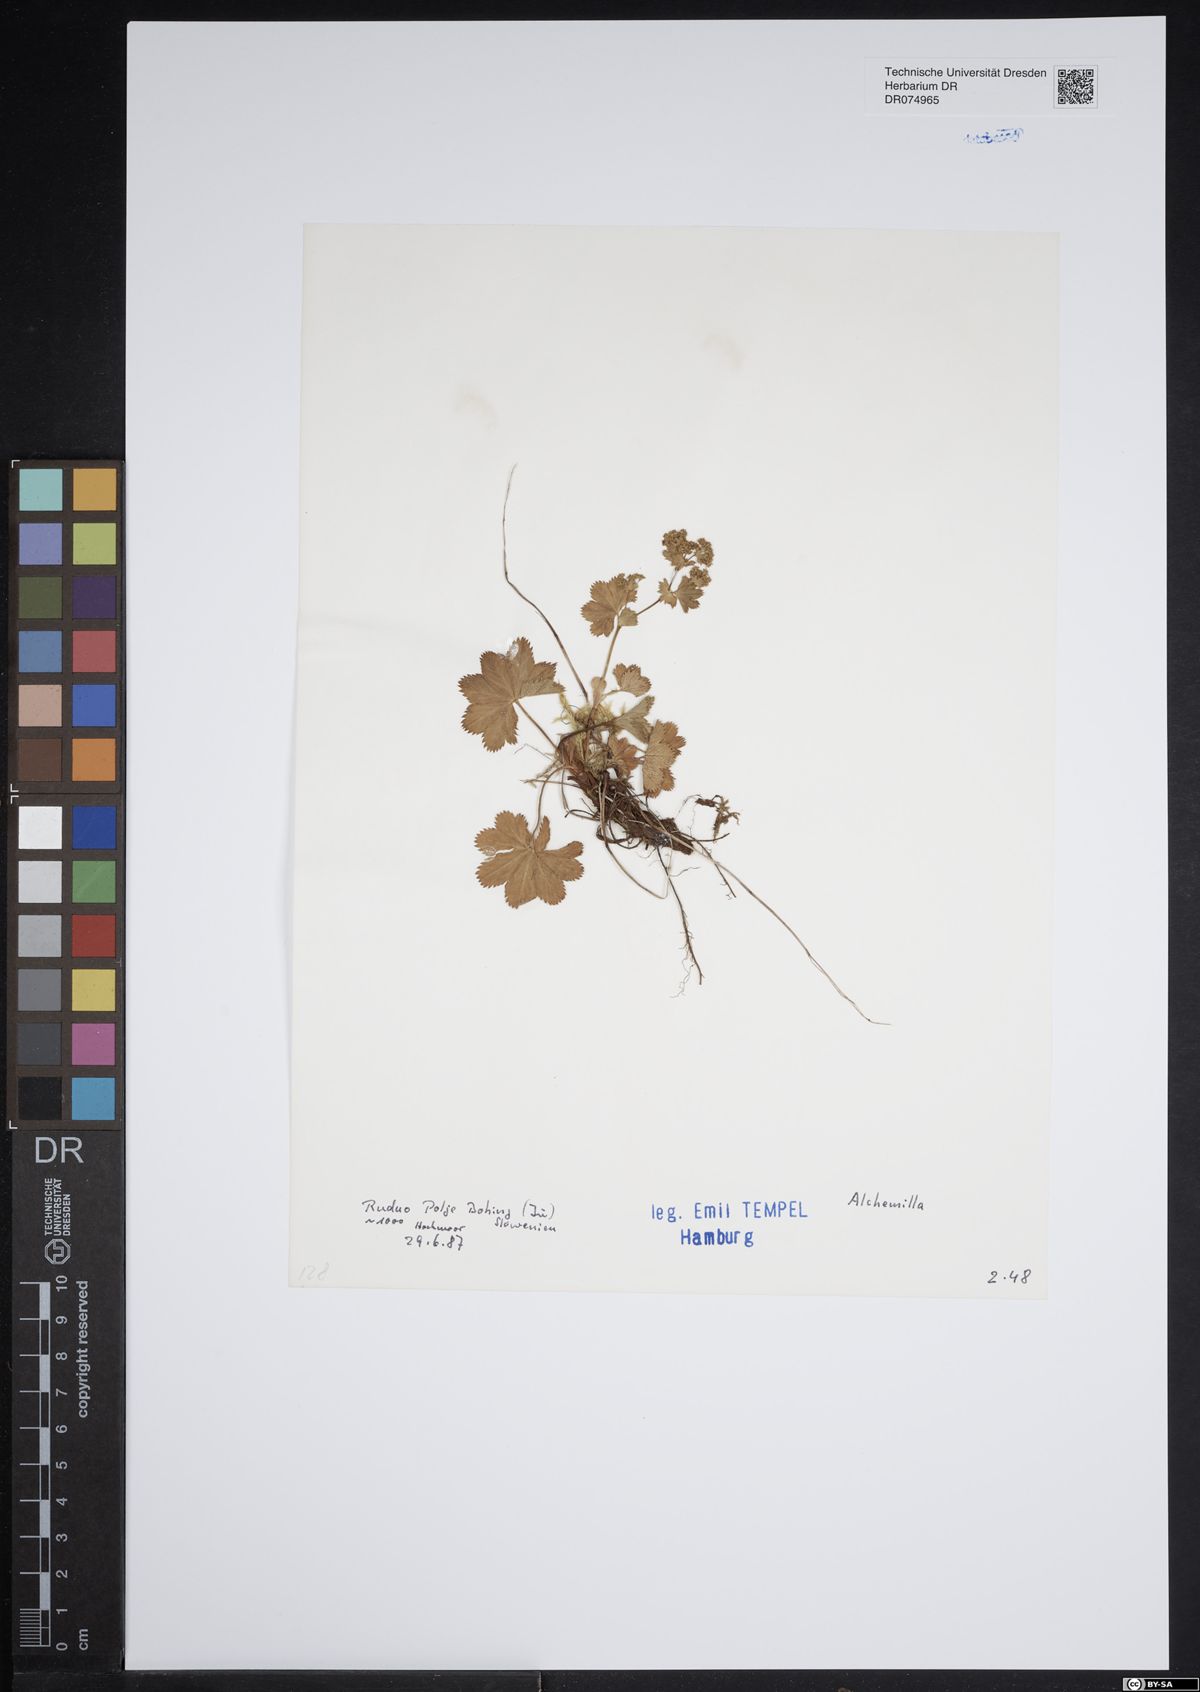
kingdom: Plantae
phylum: Tracheophyta
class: Magnoliopsida
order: Rosales
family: Rosaceae
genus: Alchemilla
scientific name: Alchemilla
